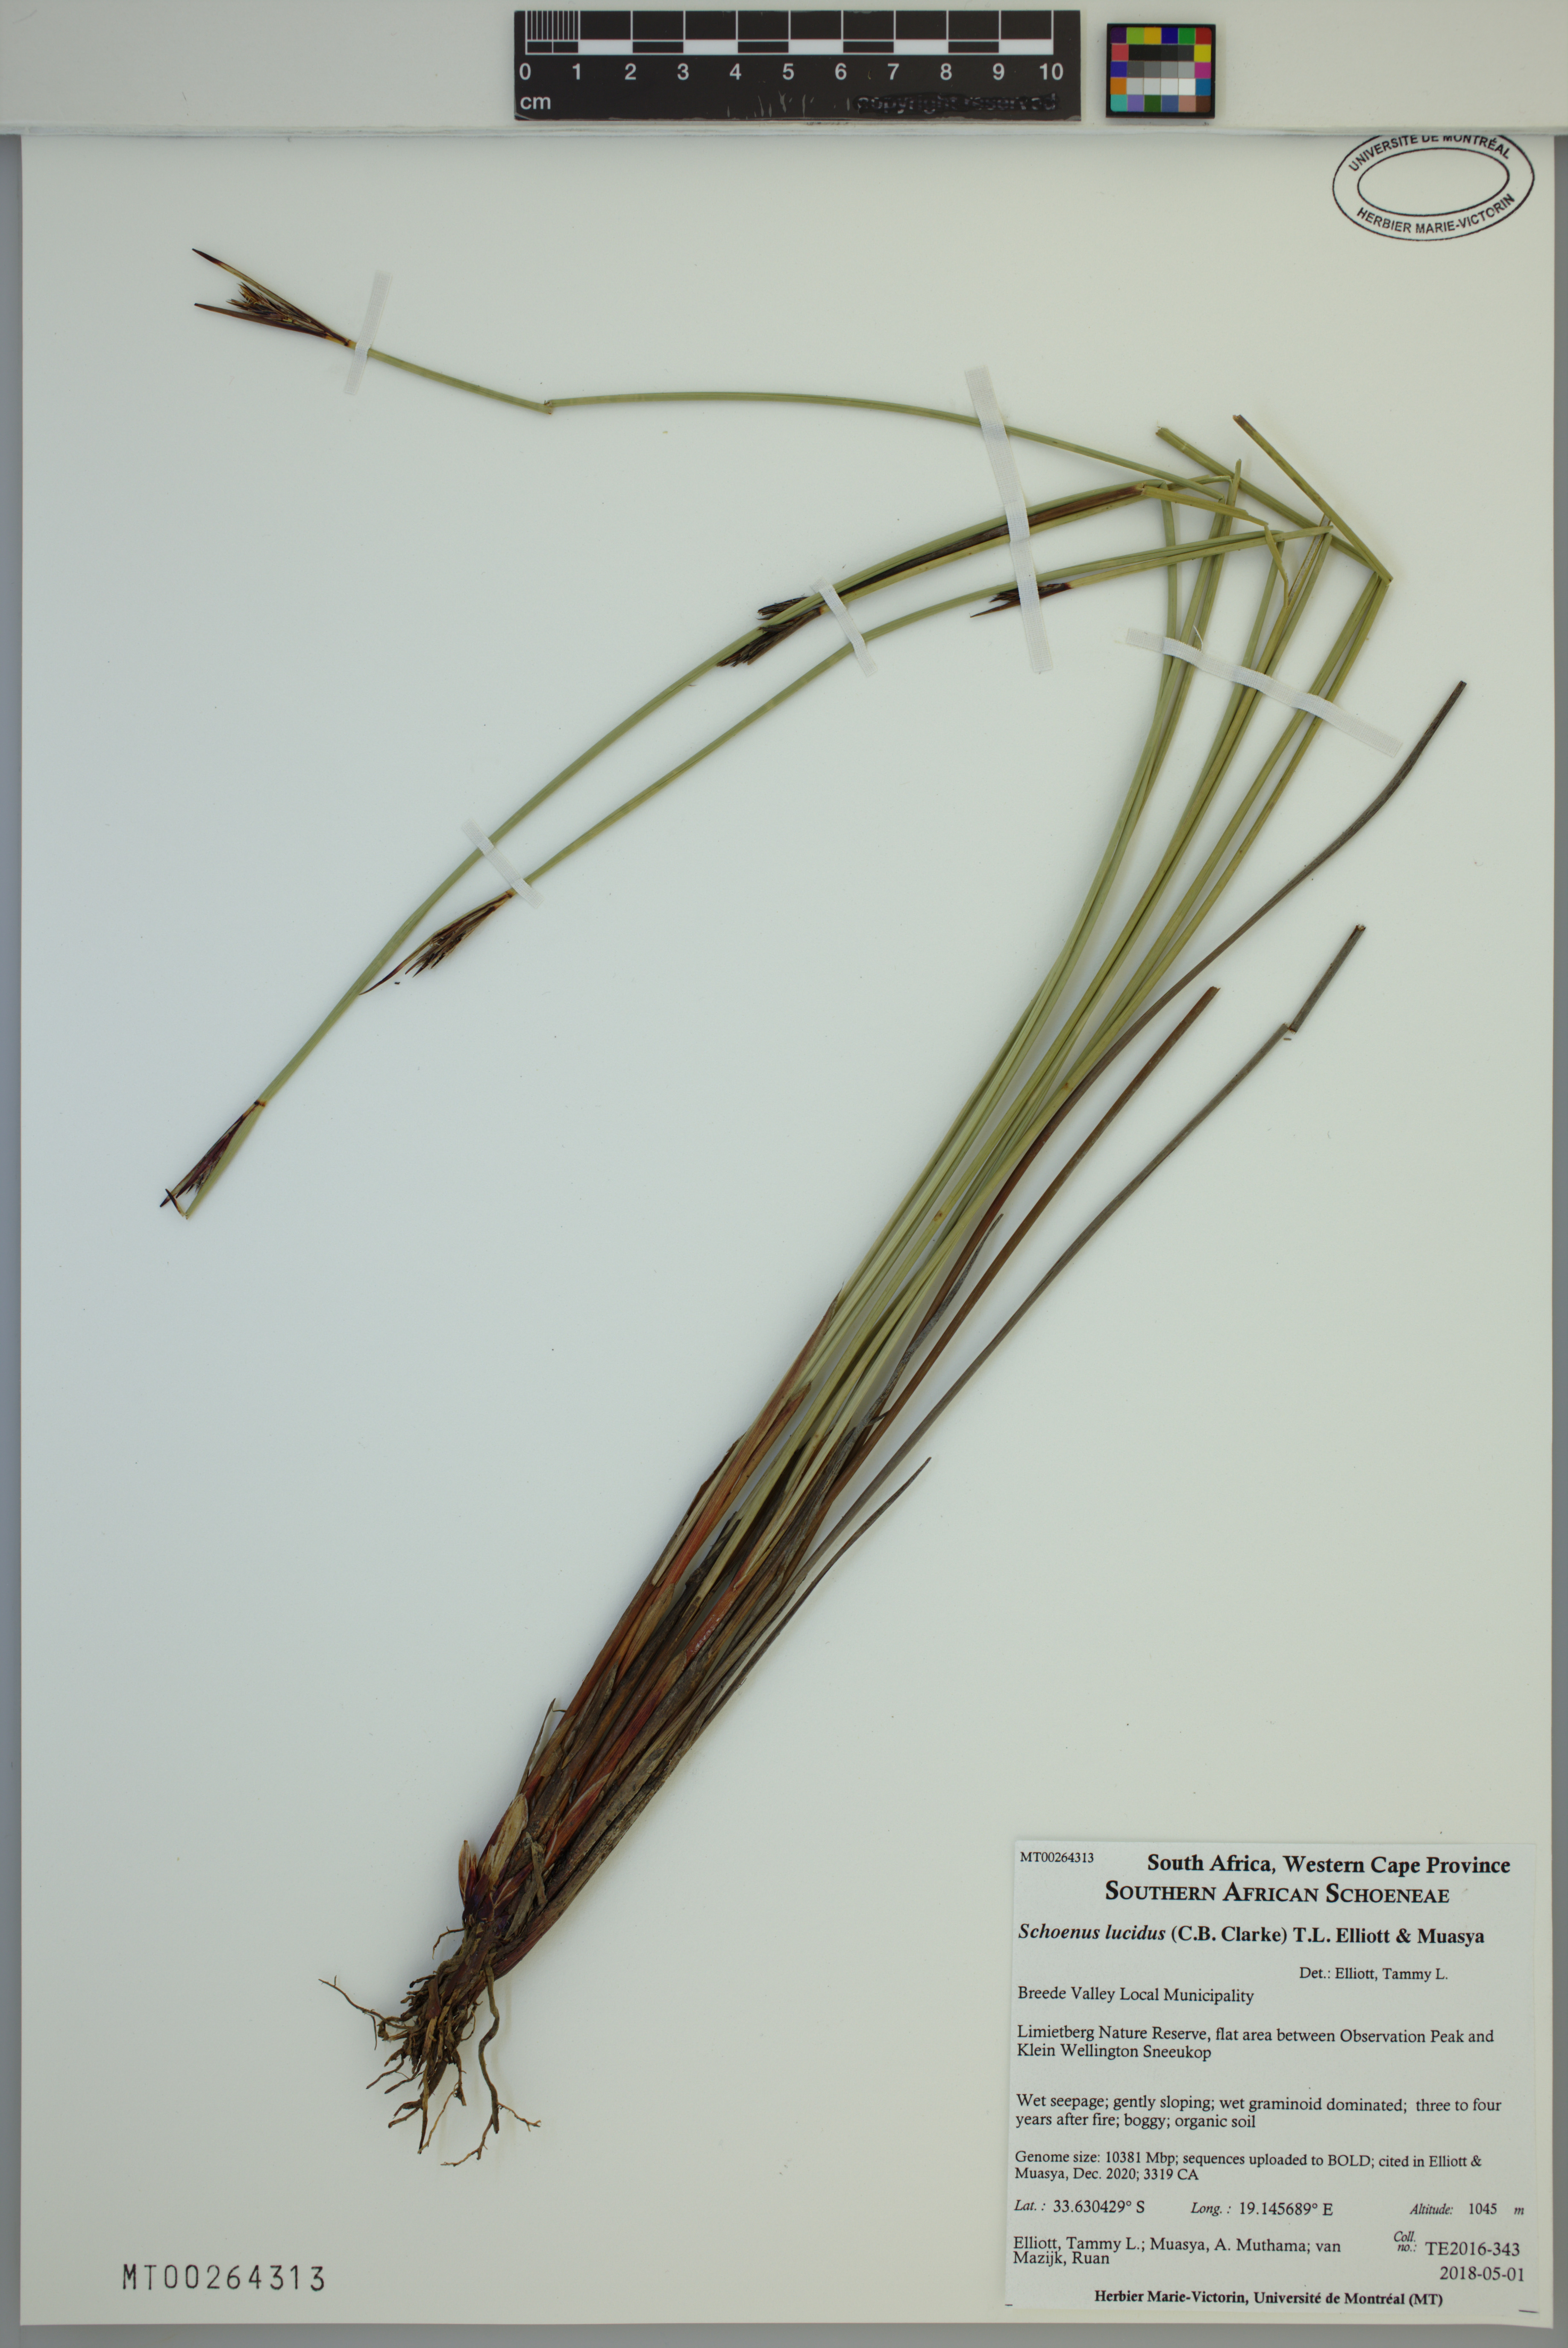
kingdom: Plantae
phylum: Tracheophyta
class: Liliopsida
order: Poales
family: Cyperaceae
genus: Schoenus
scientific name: Schoenus lucidus
